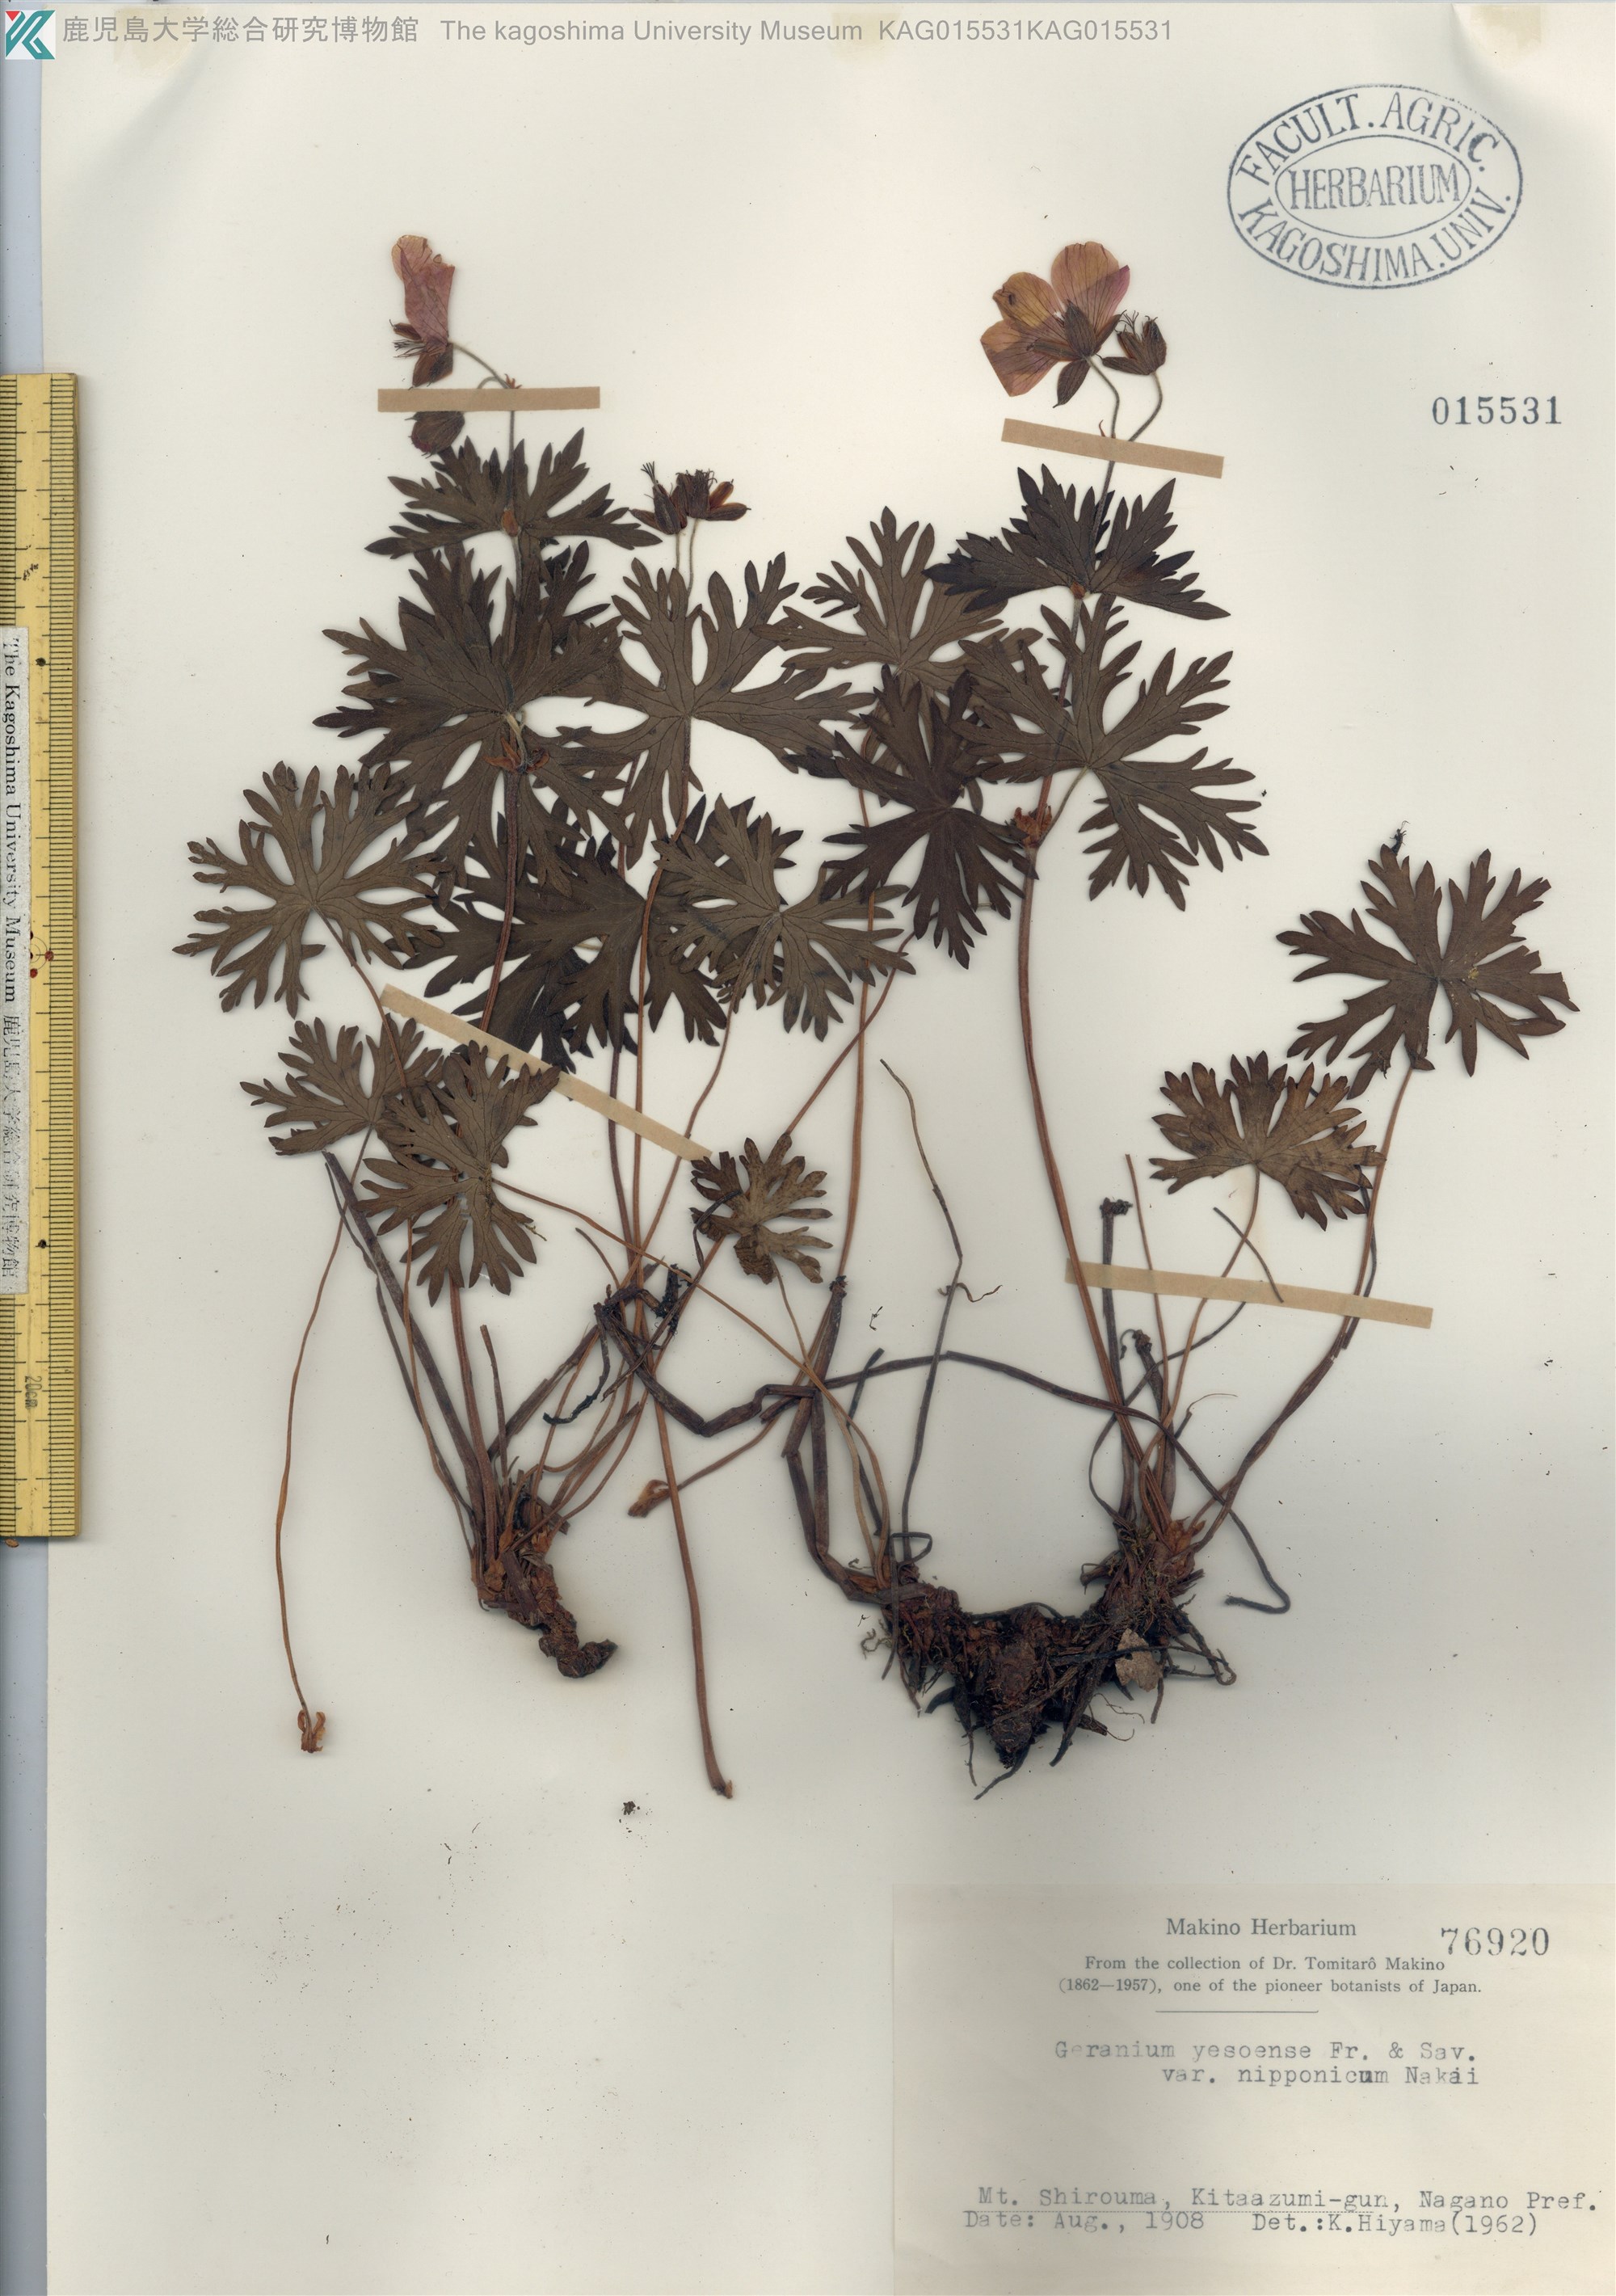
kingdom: Plantae
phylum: Tracheophyta
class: Magnoliopsida
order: Geraniales
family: Geraniaceae
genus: Geranium
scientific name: Geranium yesoense
